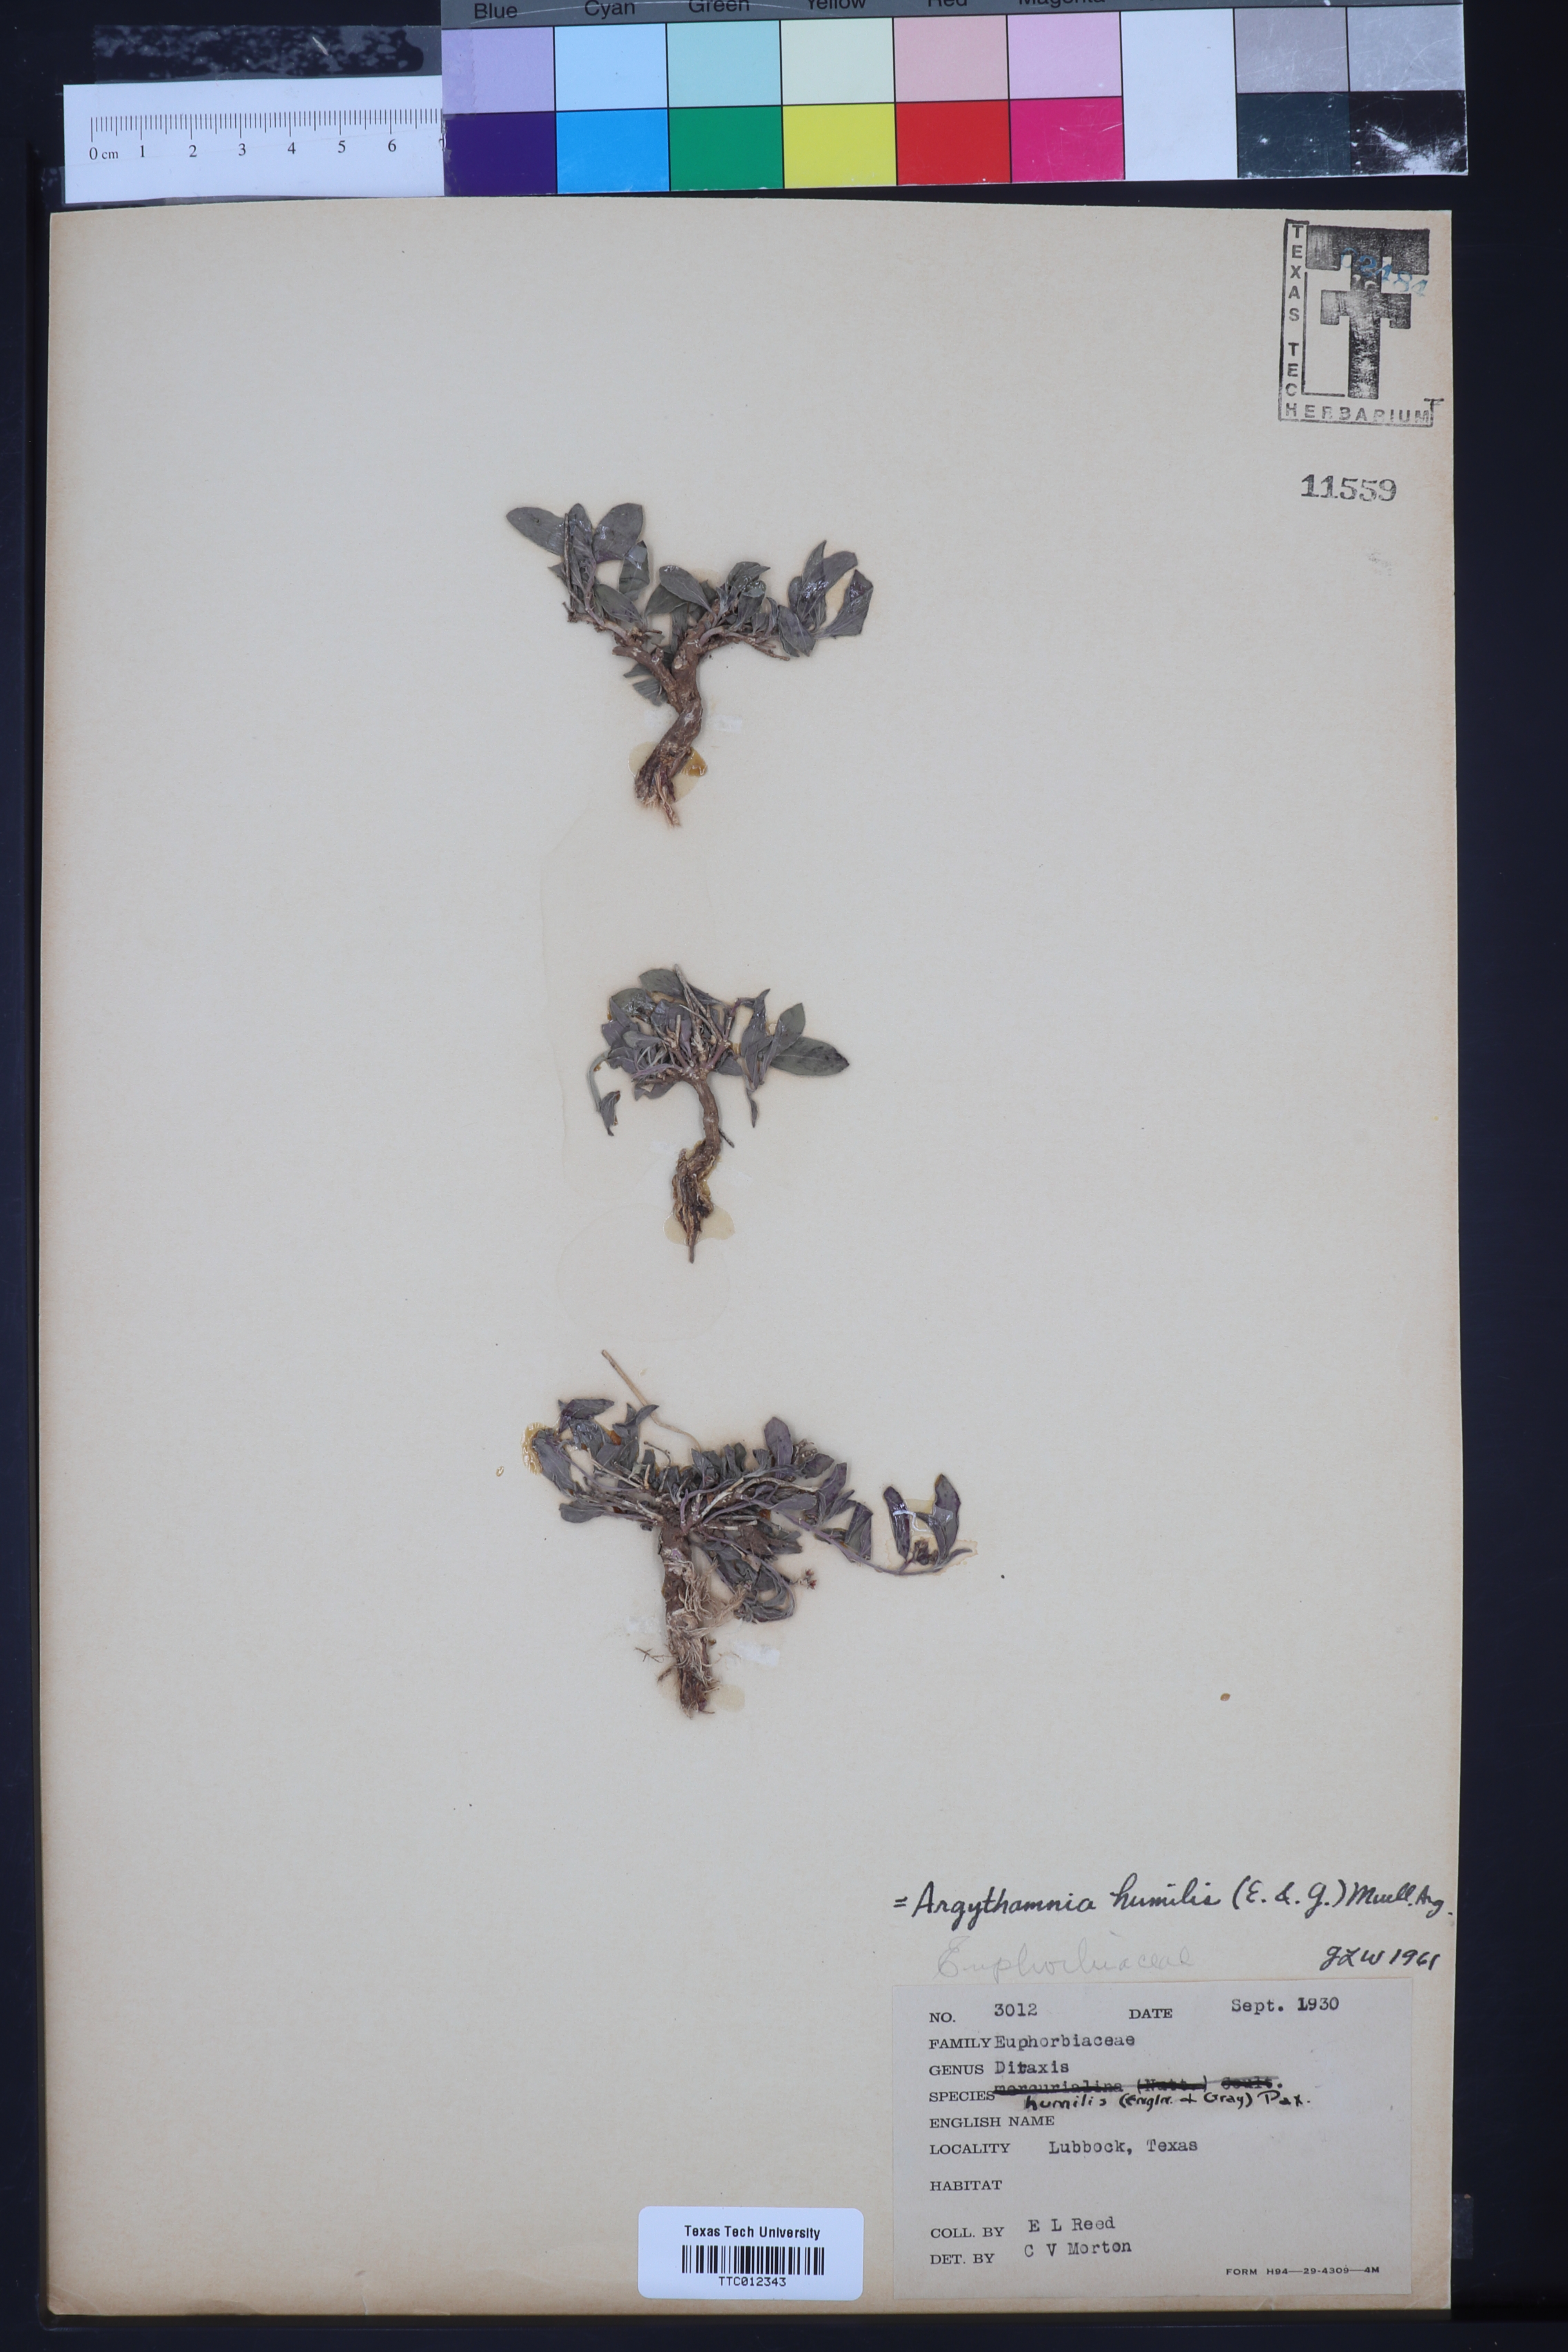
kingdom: Plantae
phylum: Tracheophyta
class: Magnoliopsida
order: Malpighiales
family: Euphorbiaceae
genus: Ditaxis
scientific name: Ditaxis humilis
